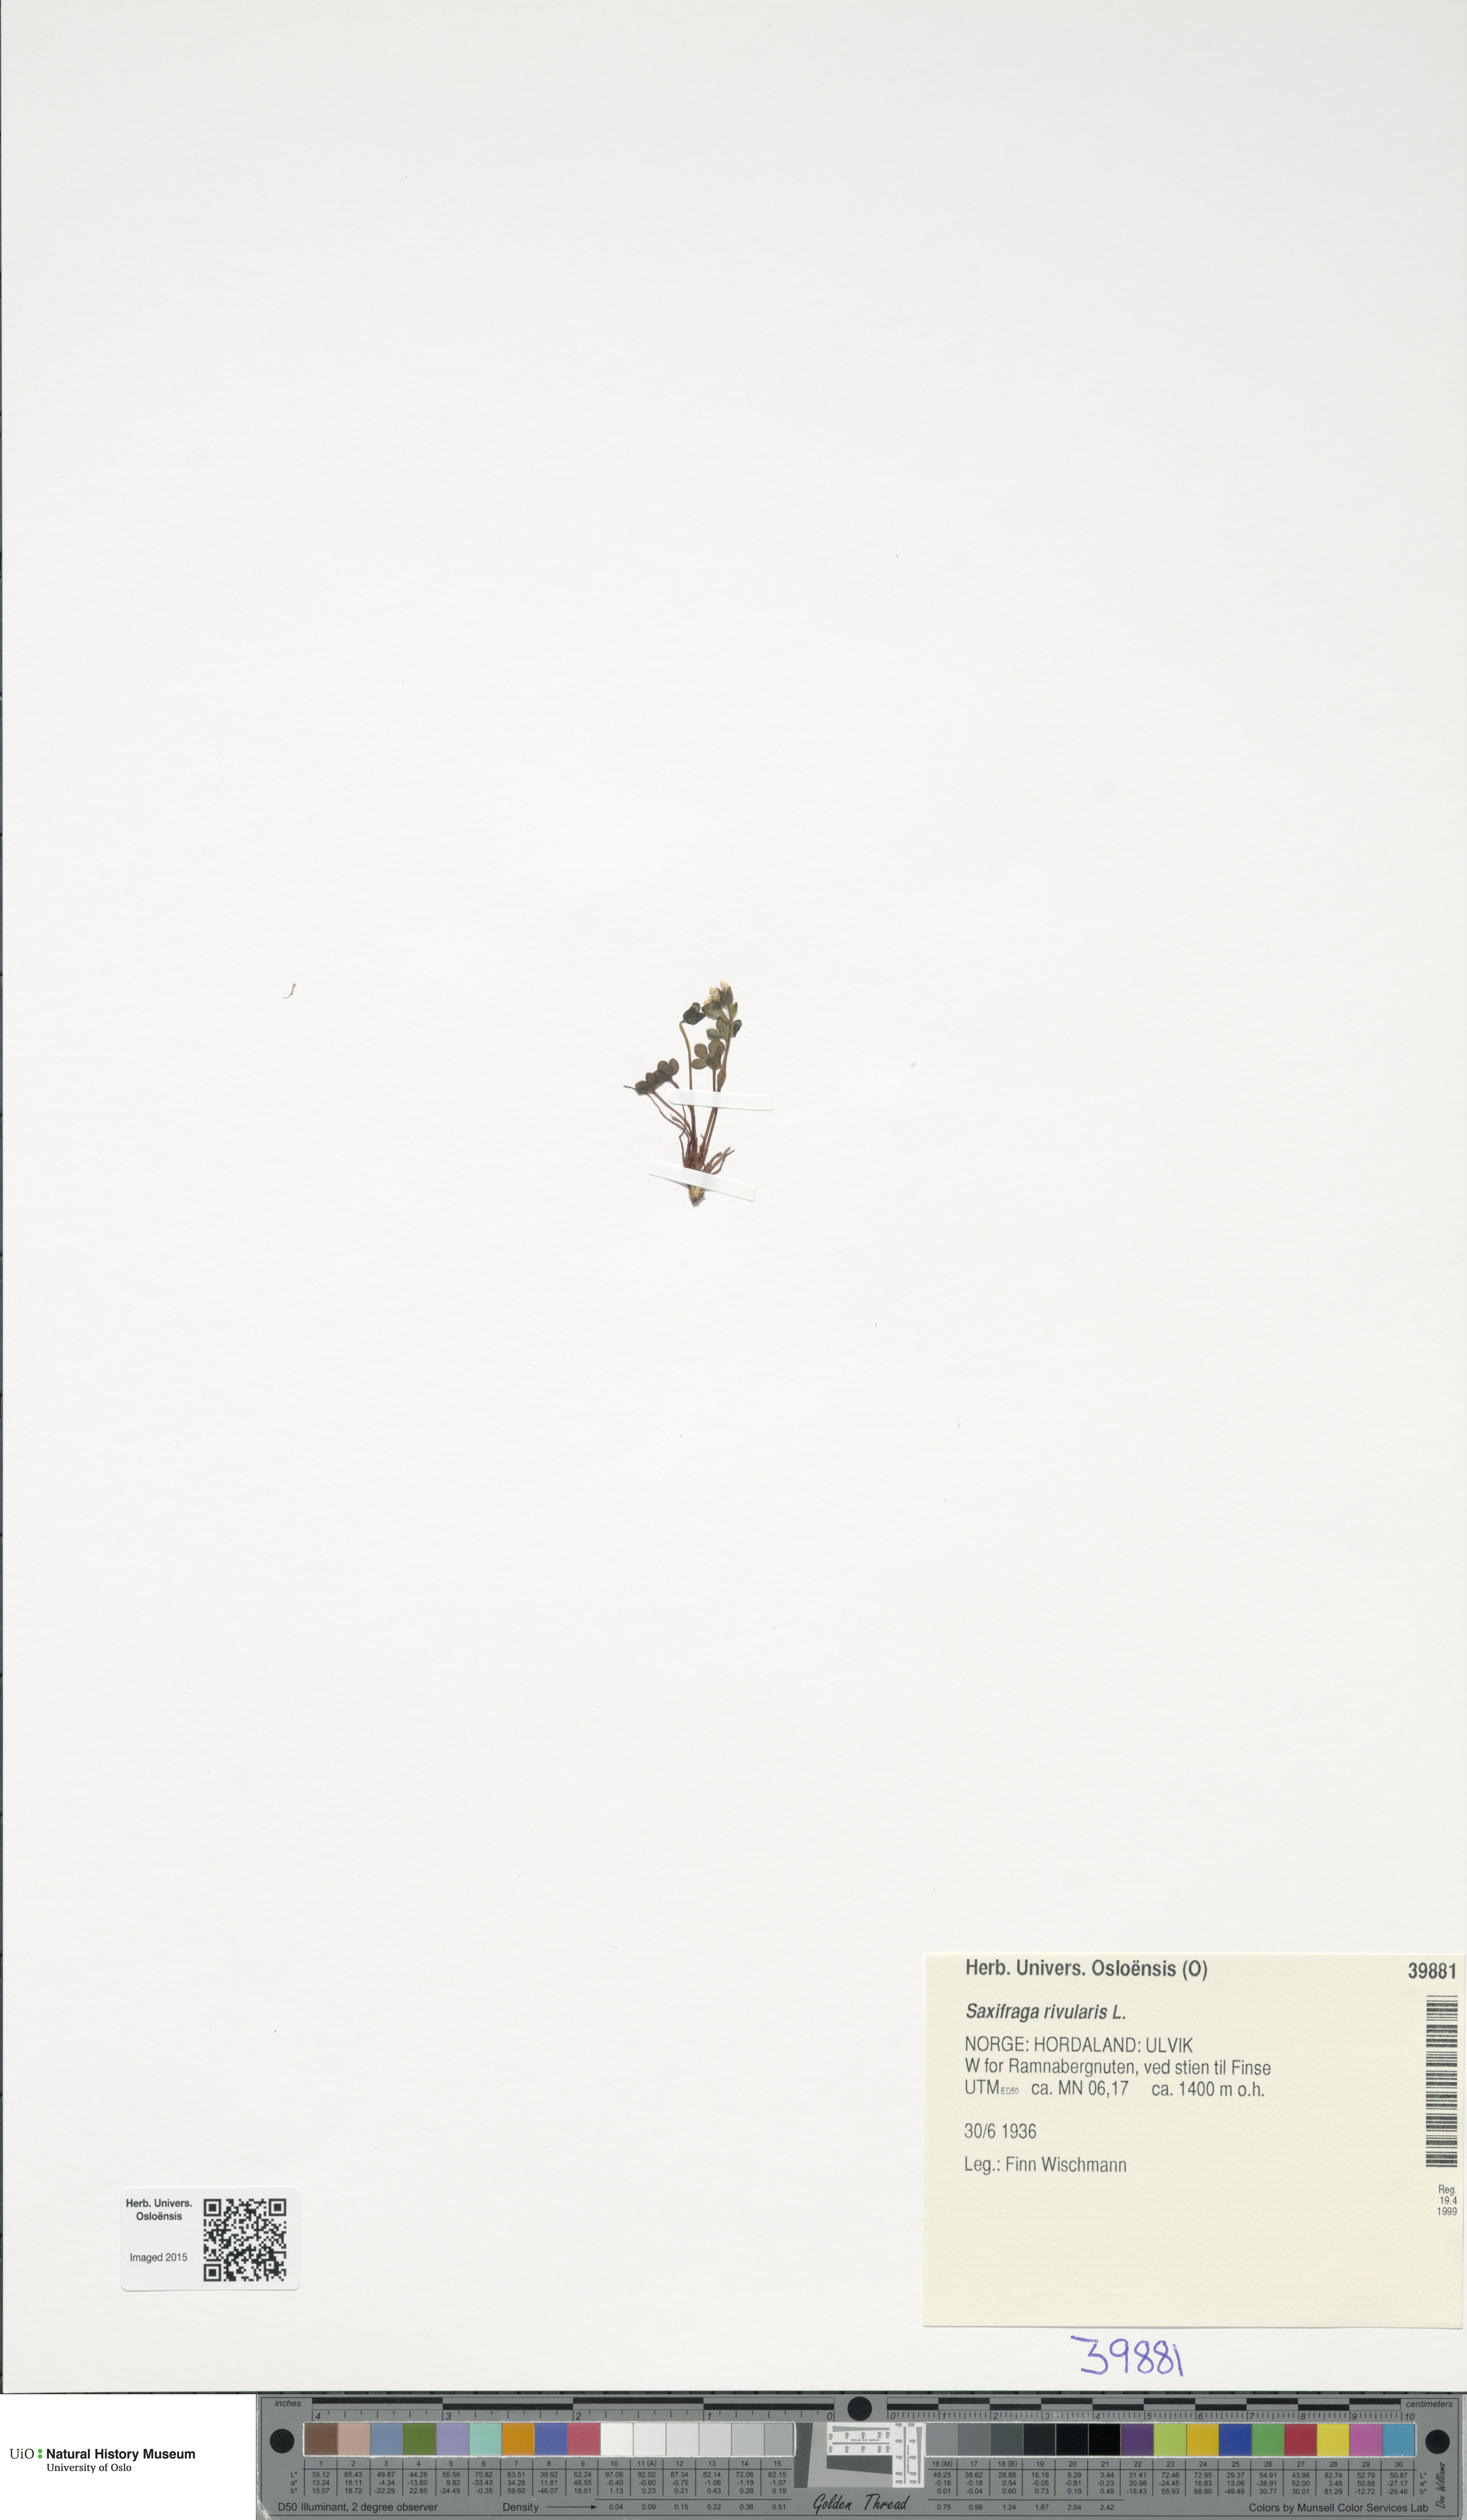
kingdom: Plantae
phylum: Tracheophyta
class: Magnoliopsida
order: Saxifragales
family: Saxifragaceae
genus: Saxifraga
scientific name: Saxifraga rivularis
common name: Highland saxifrage
